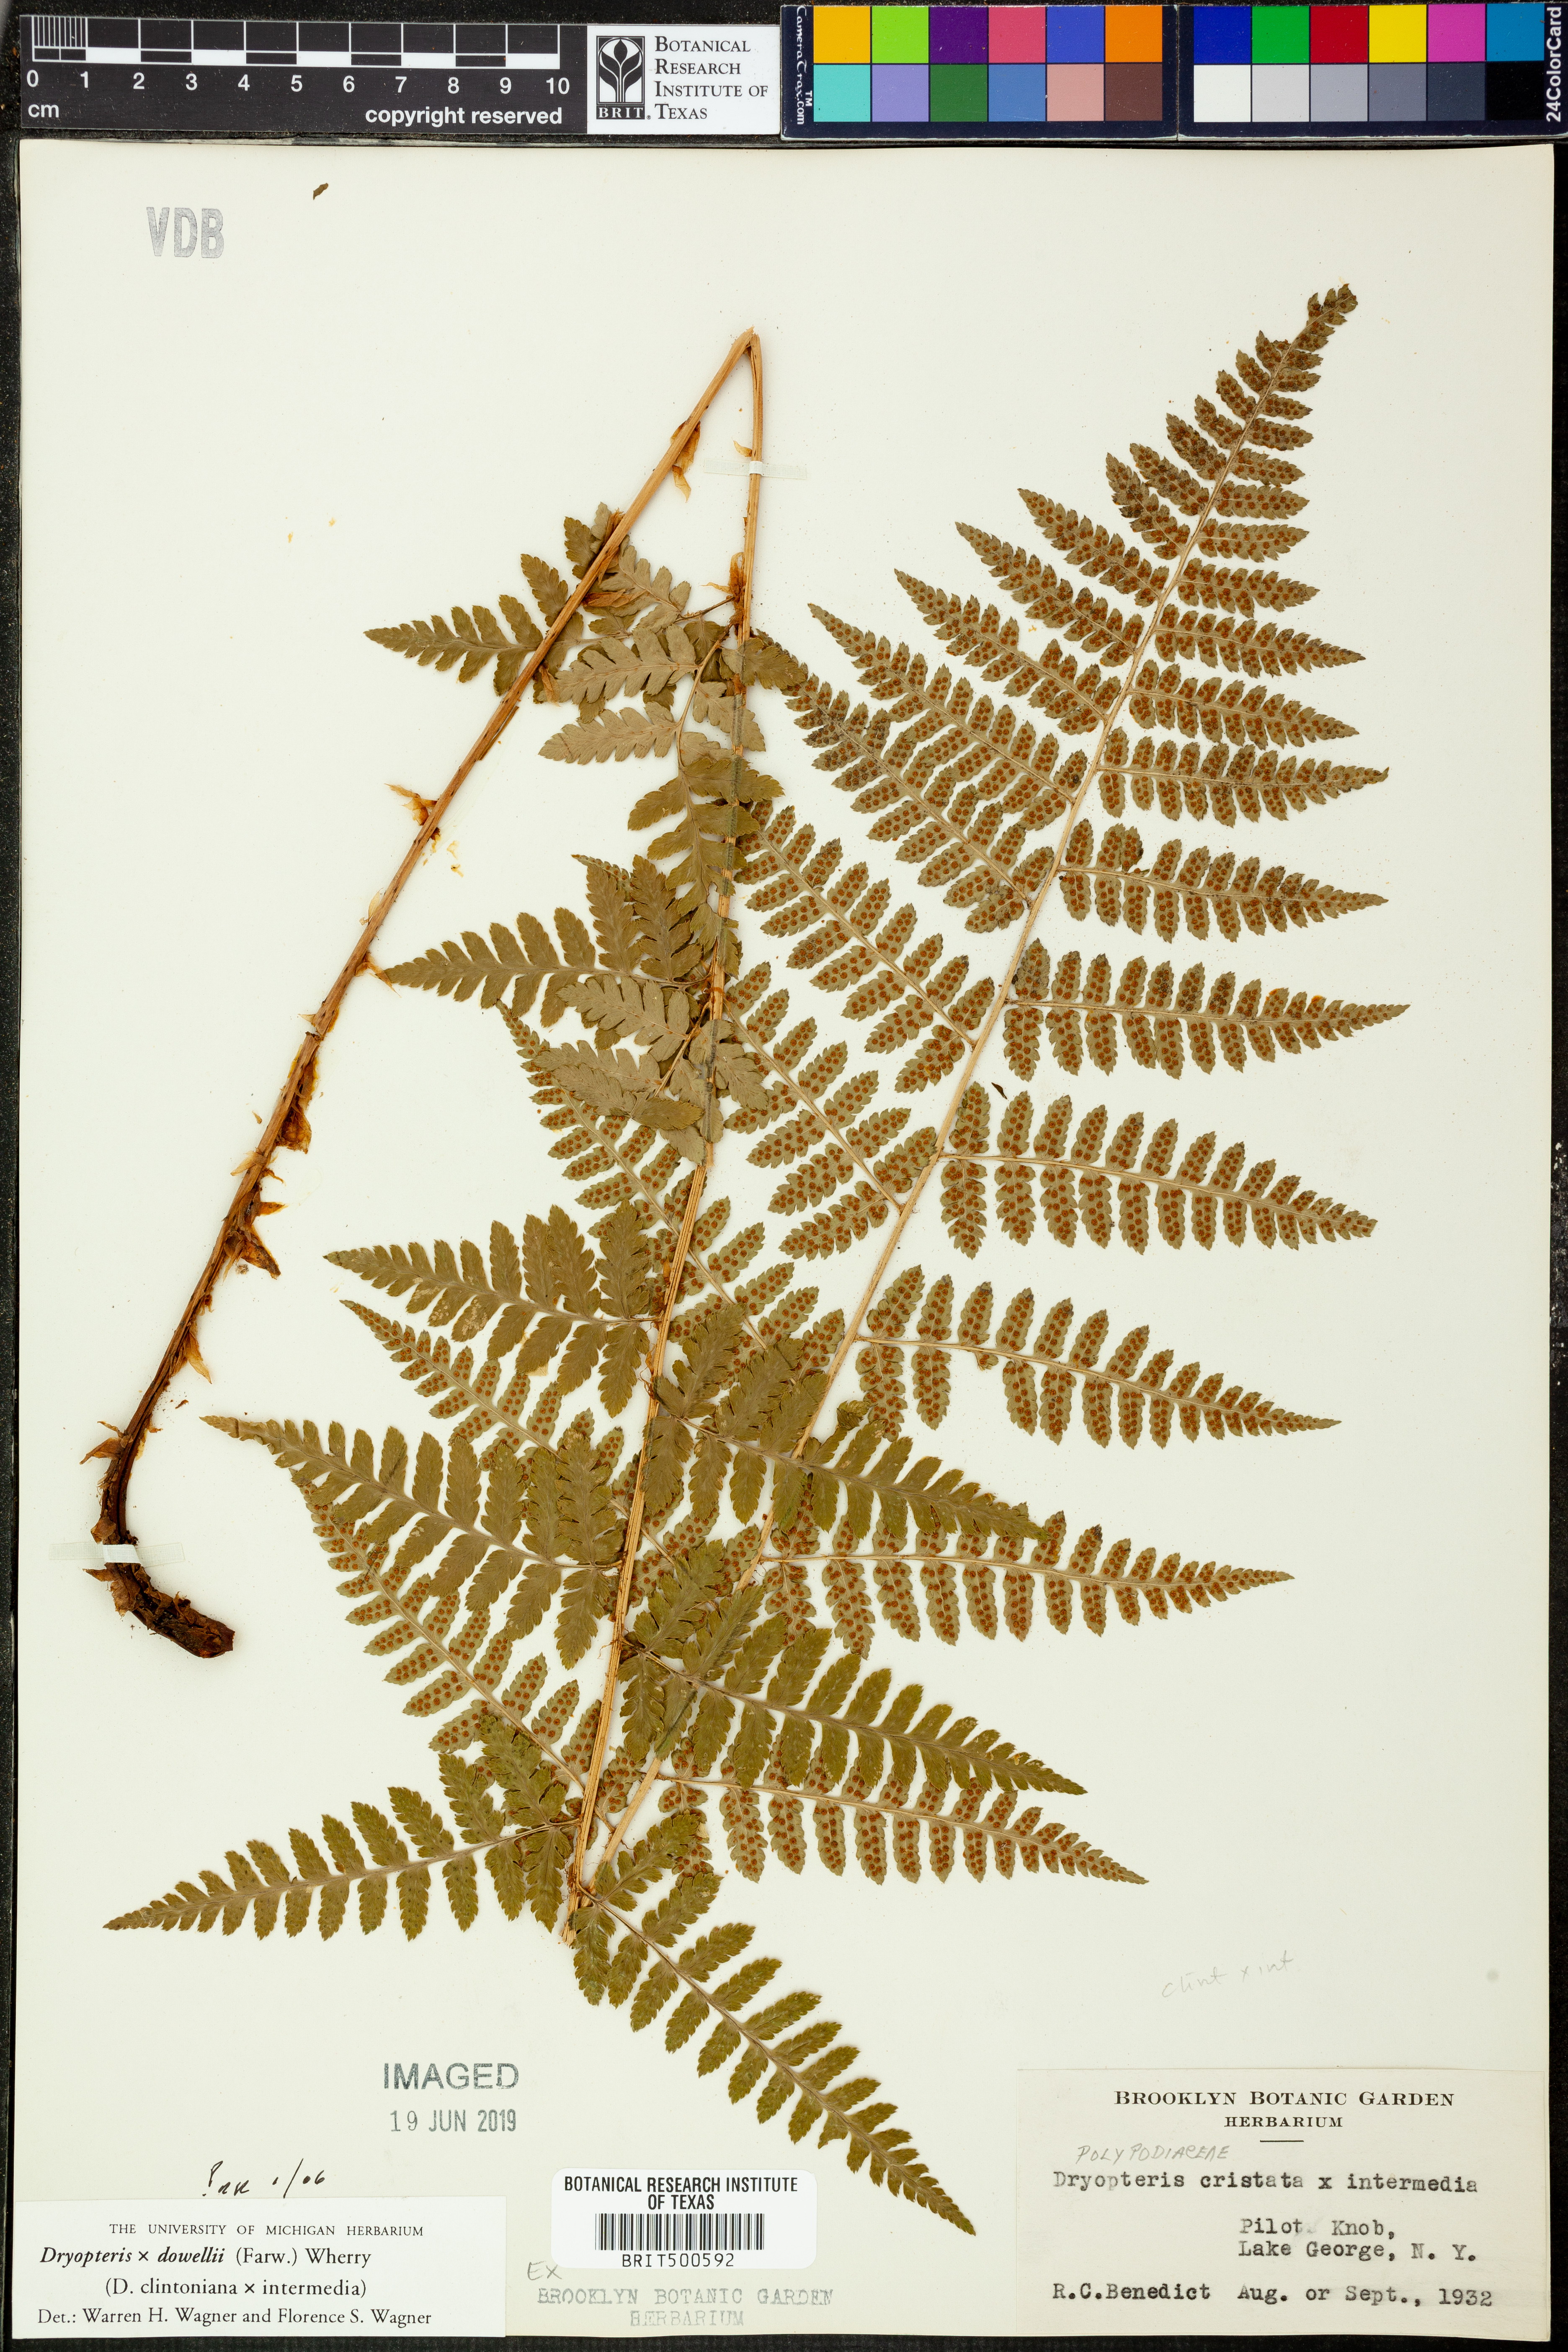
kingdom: Plantae
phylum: Tracheophyta
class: Polypodiopsida
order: Polypodiales
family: Dryopteridaceae
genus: Dryopteris
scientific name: Dryopteris
